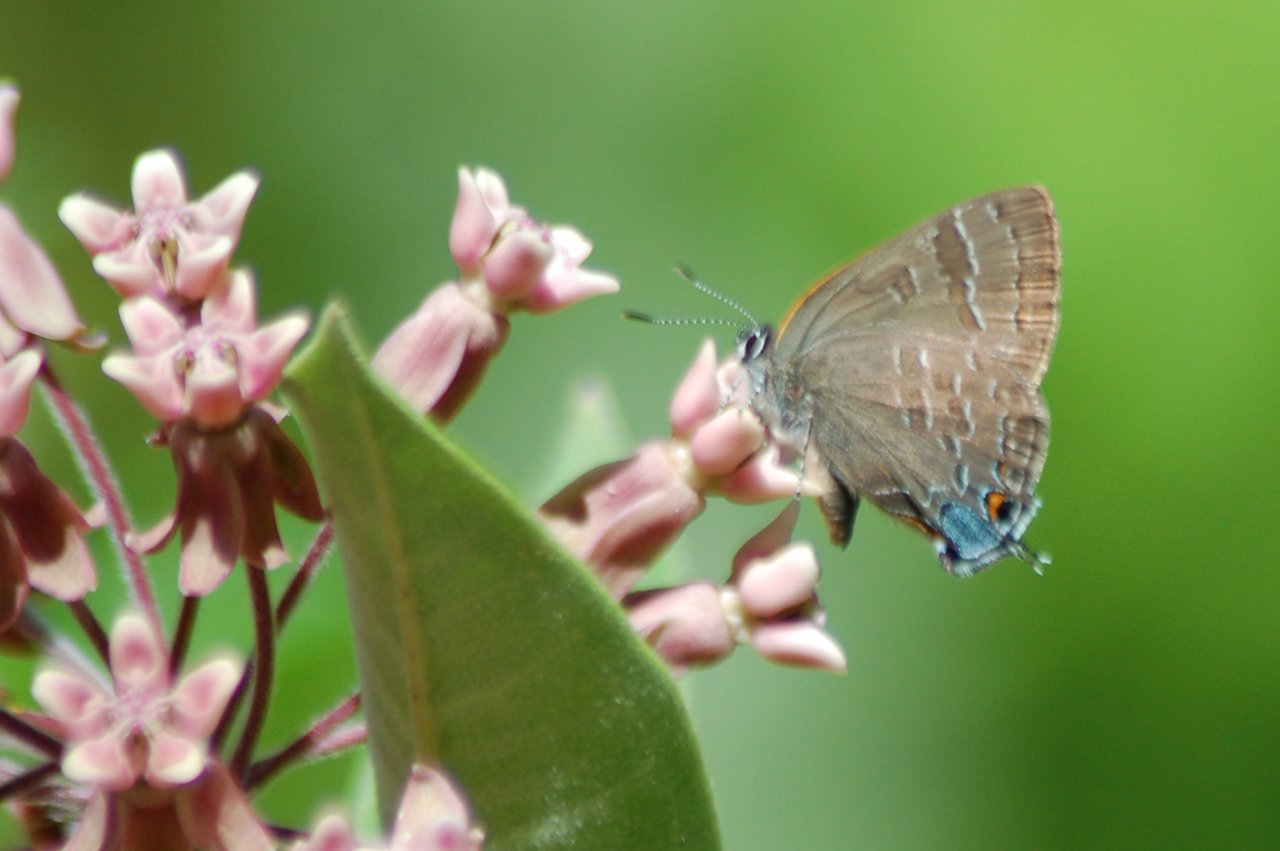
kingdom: Animalia
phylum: Arthropoda
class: Insecta
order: Lepidoptera
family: Lycaenidae
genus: Strymon
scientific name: Strymon caryaevorus
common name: Hickory Hairstreak
